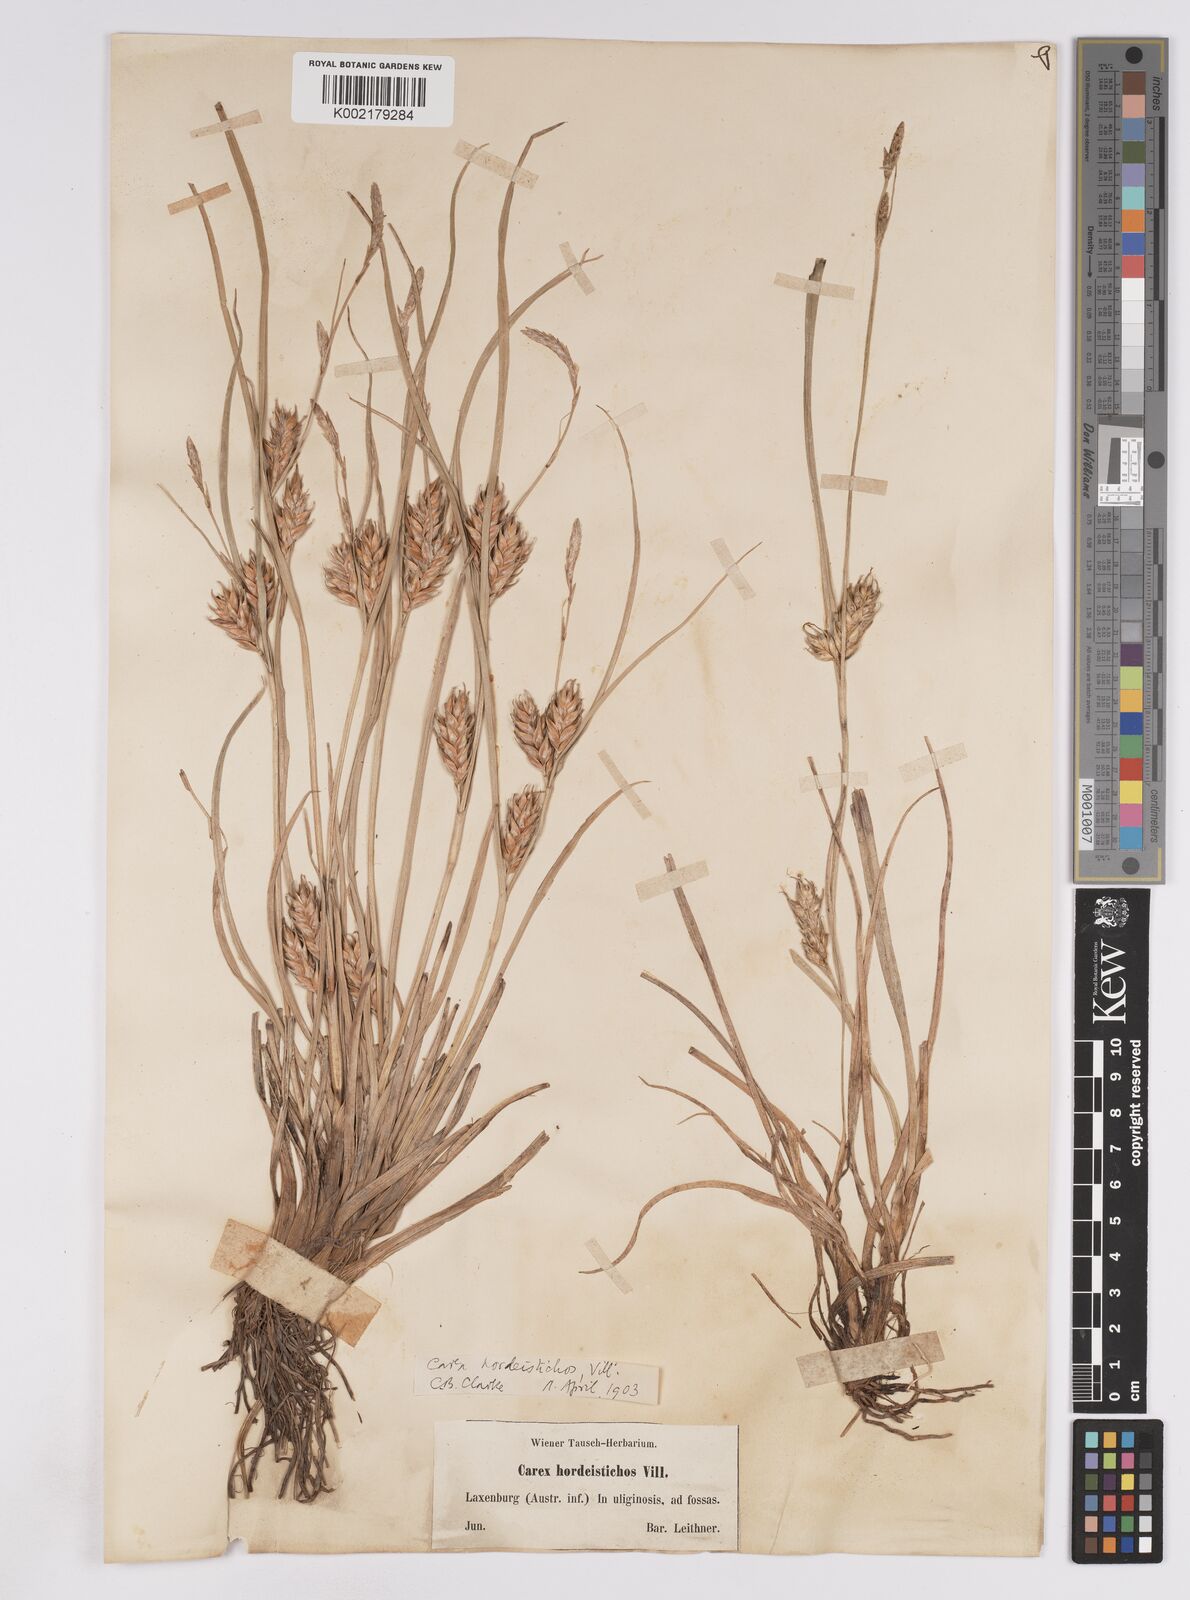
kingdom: Plantae
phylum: Tracheophyta
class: Liliopsida
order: Poales
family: Cyperaceae
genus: Carex
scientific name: Carex hordeistichos
